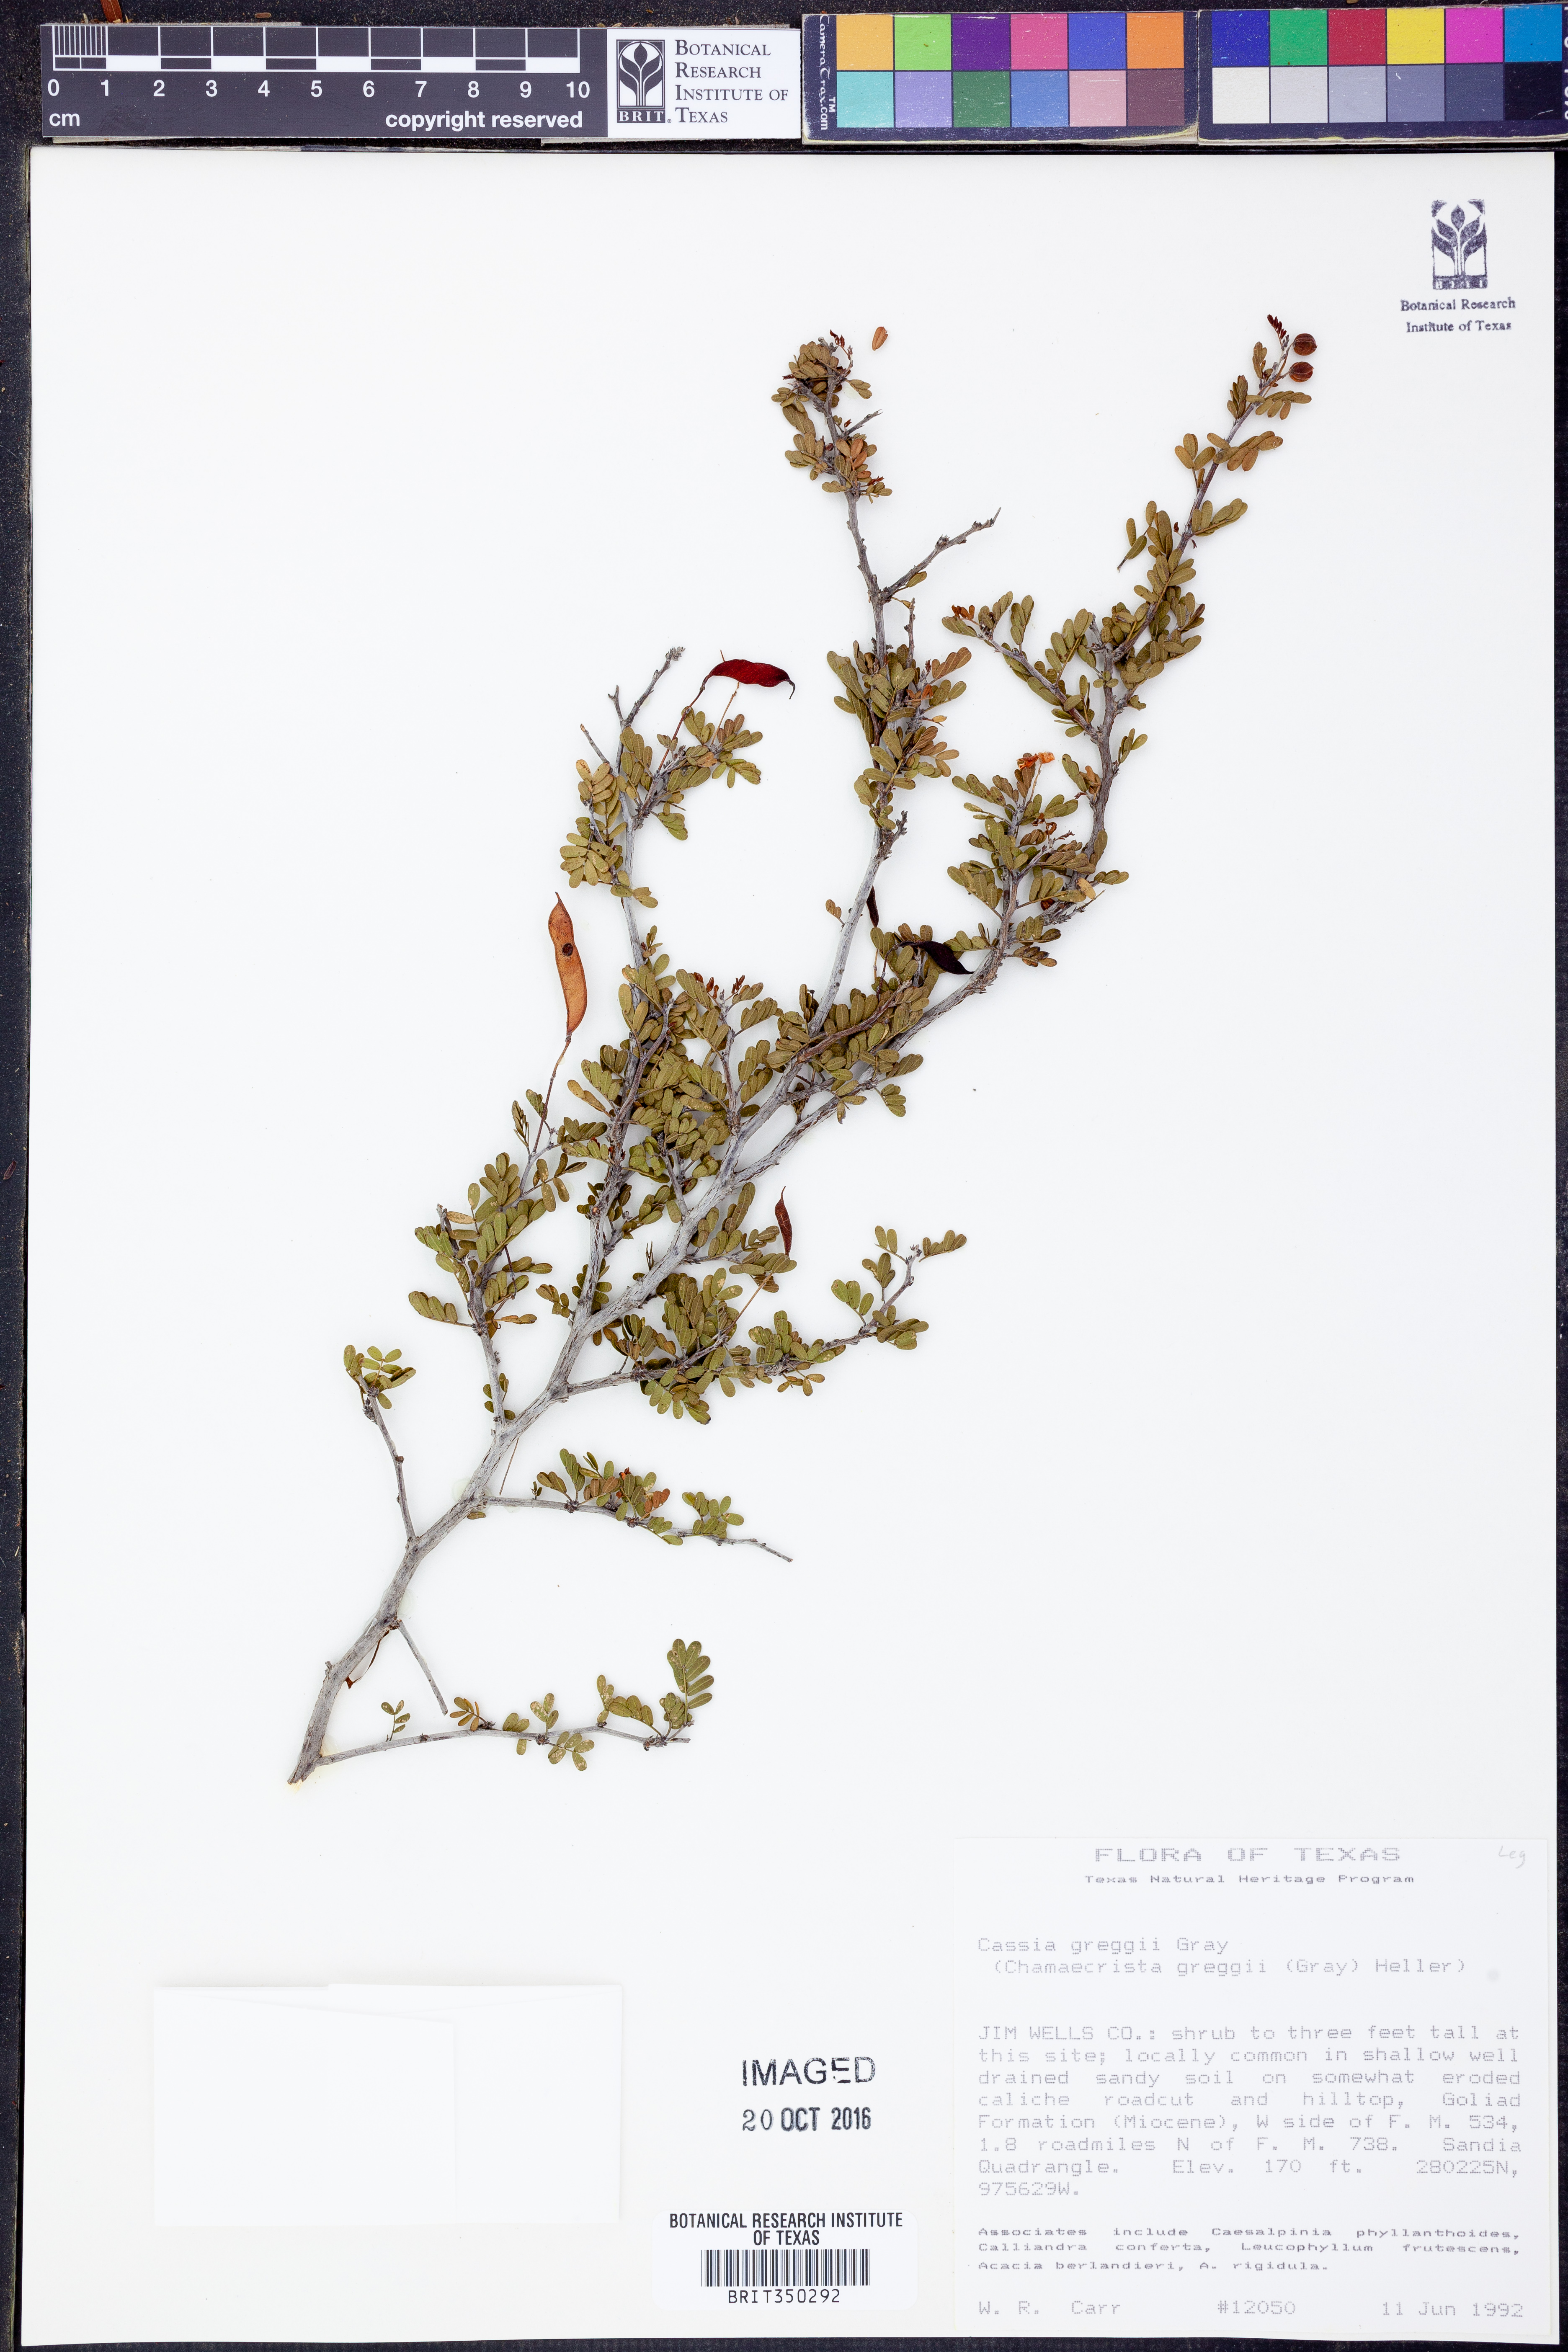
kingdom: Plantae
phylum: Tracheophyta
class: Magnoliopsida
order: Fabales
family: Fabaceae
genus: Chamaecrista
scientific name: Chamaecrista greggii
